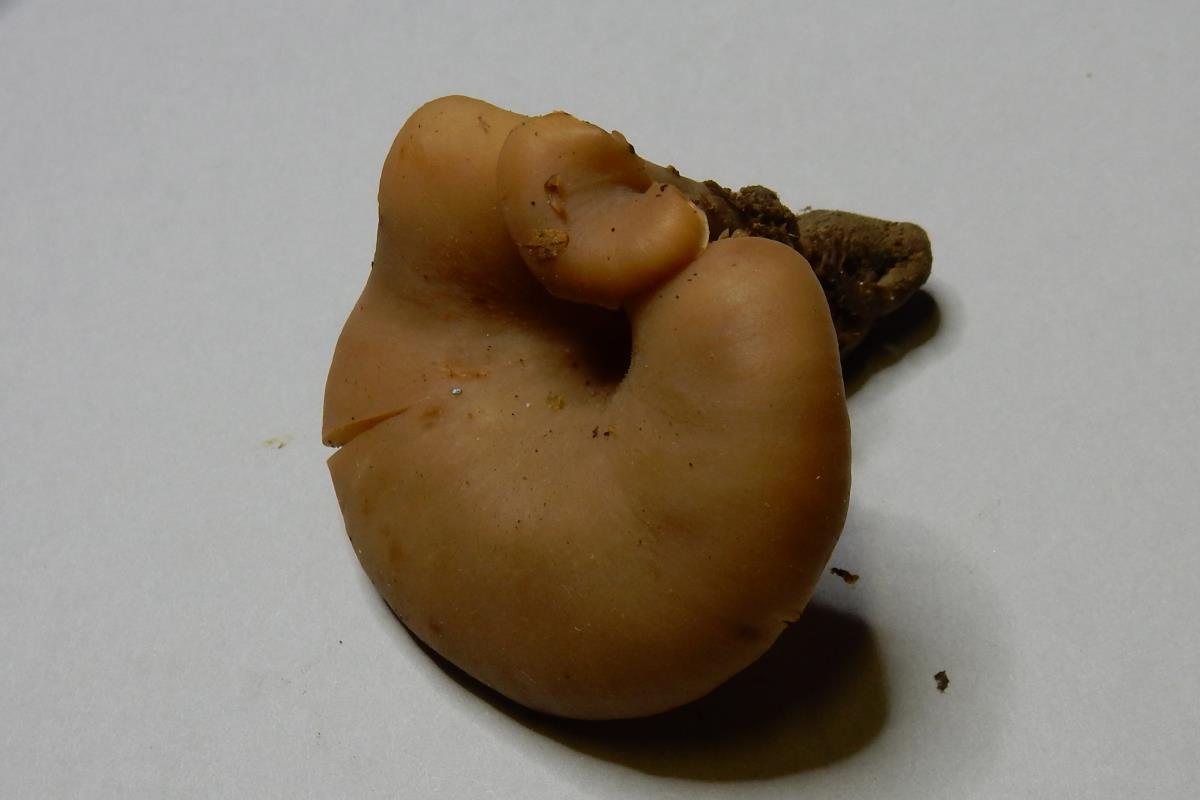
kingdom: Fungi
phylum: Basidiomycota
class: Agaricomycetes
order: Agaricales
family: Tricholomataceae
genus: Clitocybe
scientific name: Clitocybe eucalyptorum
